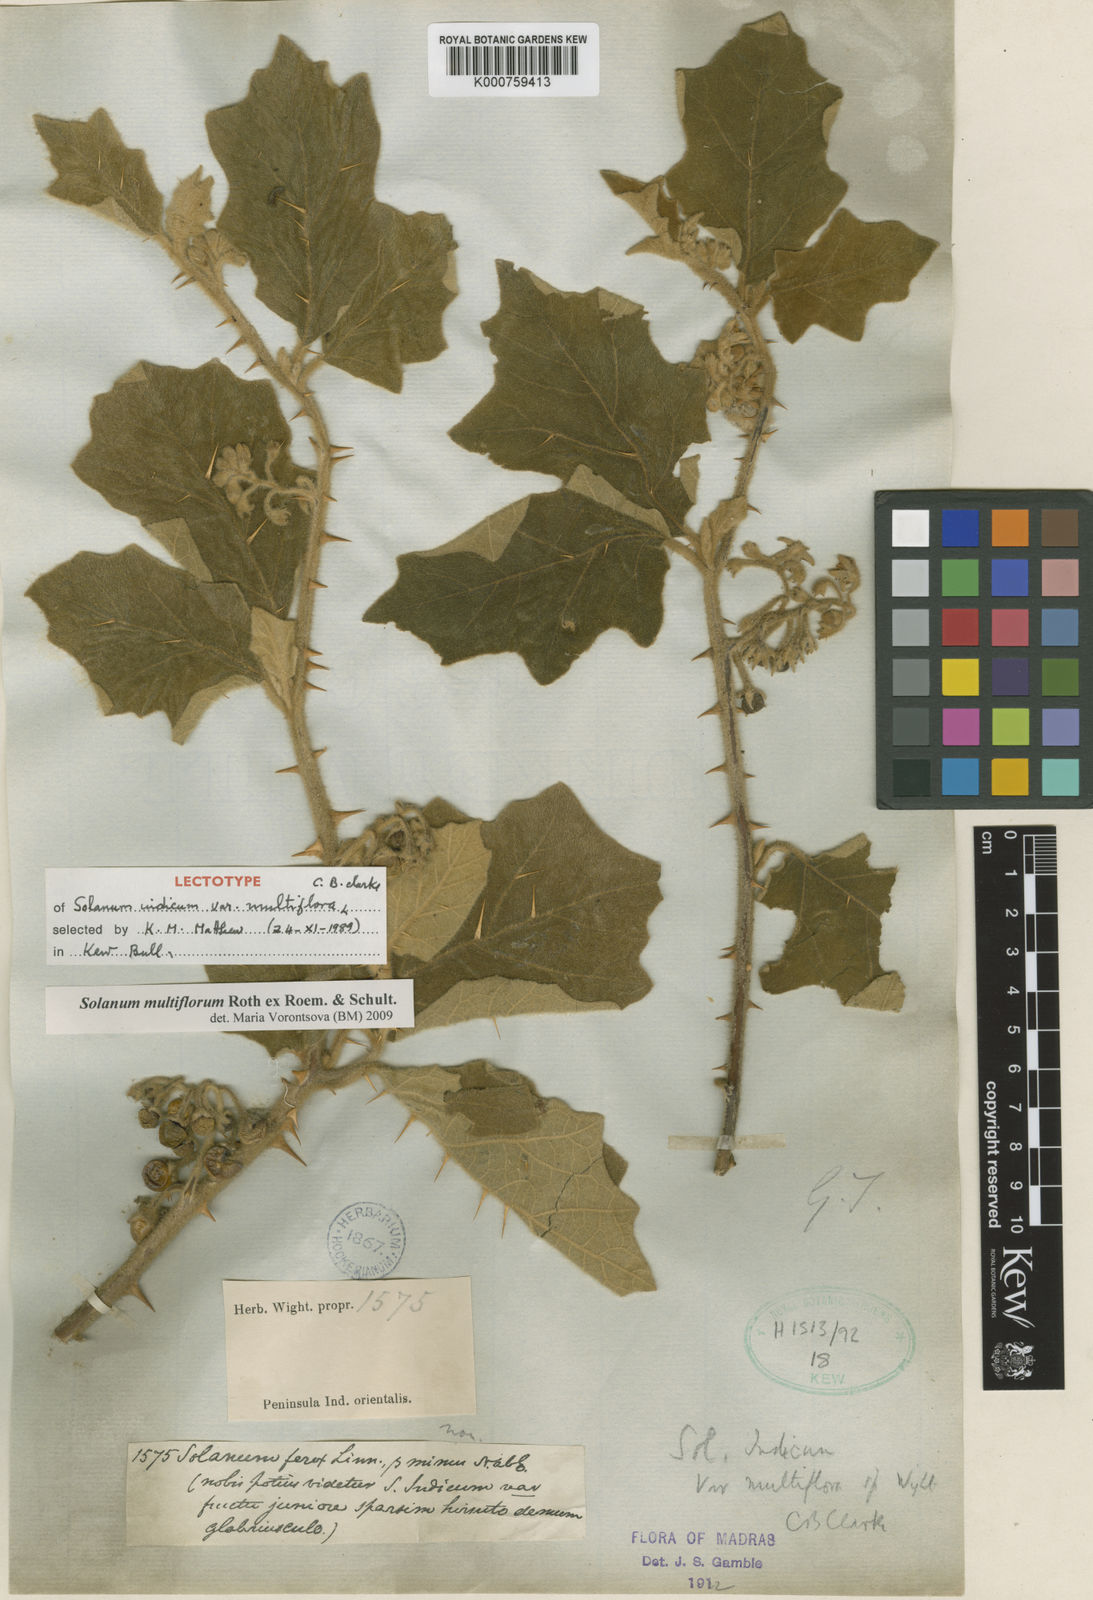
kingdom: Plantae
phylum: Tracheophyta
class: Magnoliopsida
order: Solanales
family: Solanaceae
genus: Solanum
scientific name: Solanum multiflorum
